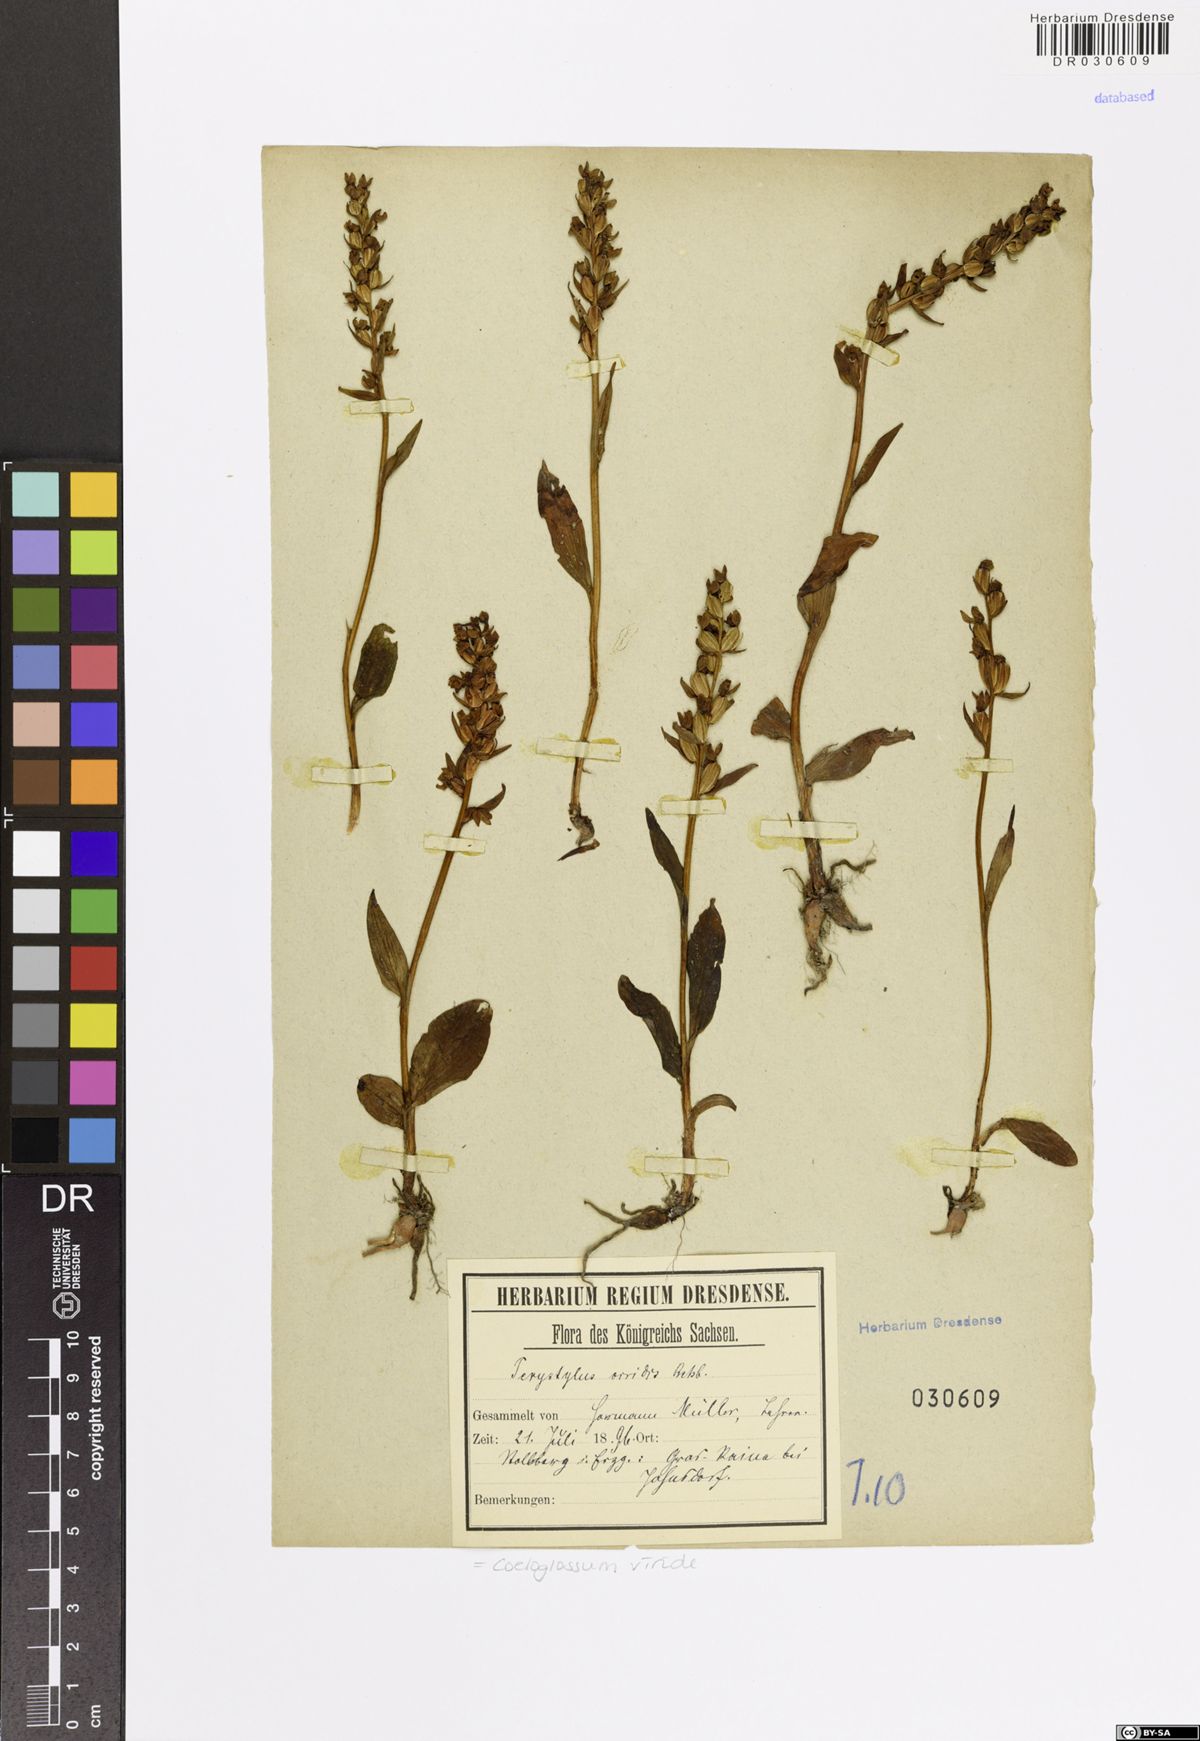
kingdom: Plantae
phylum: Tracheophyta
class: Liliopsida
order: Asparagales
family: Orchidaceae
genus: Dactylorhiza
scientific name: Dactylorhiza viridis
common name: Longbract frog orchid
